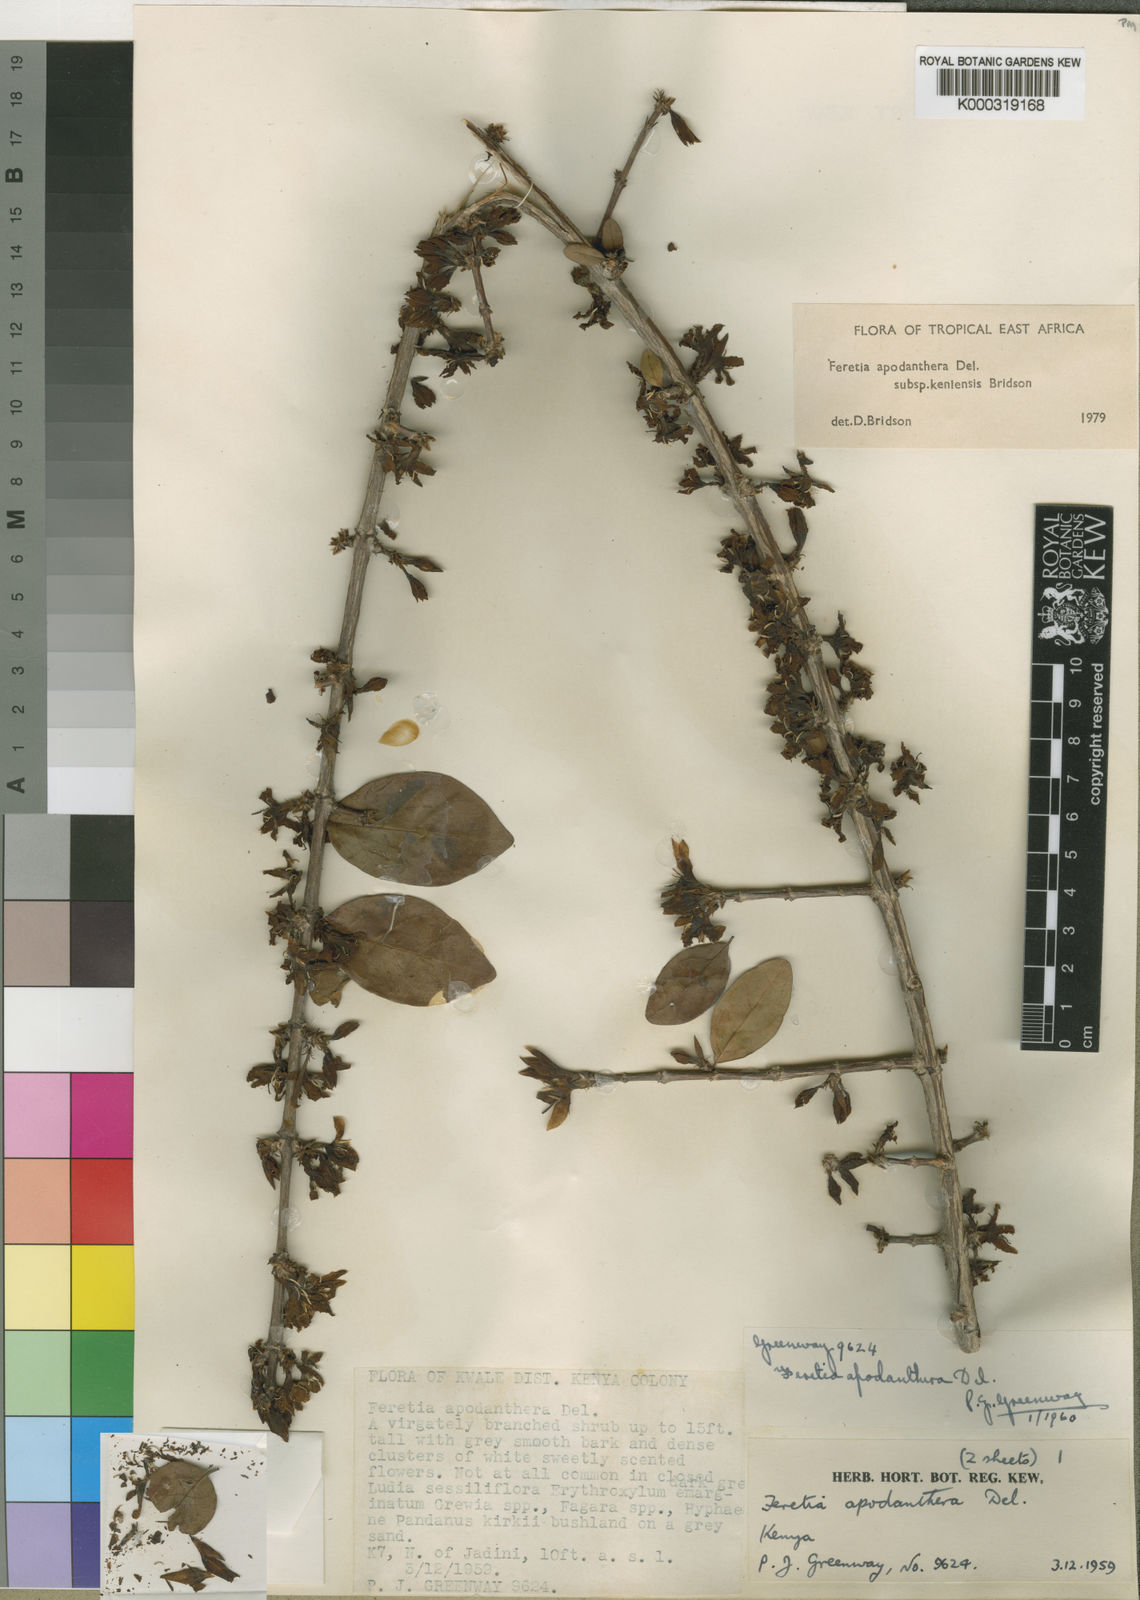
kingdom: Plantae
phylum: Tracheophyta
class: Magnoliopsida
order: Gentianales
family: Rubiaceae
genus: Feretia
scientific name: Feretia apodanthera
